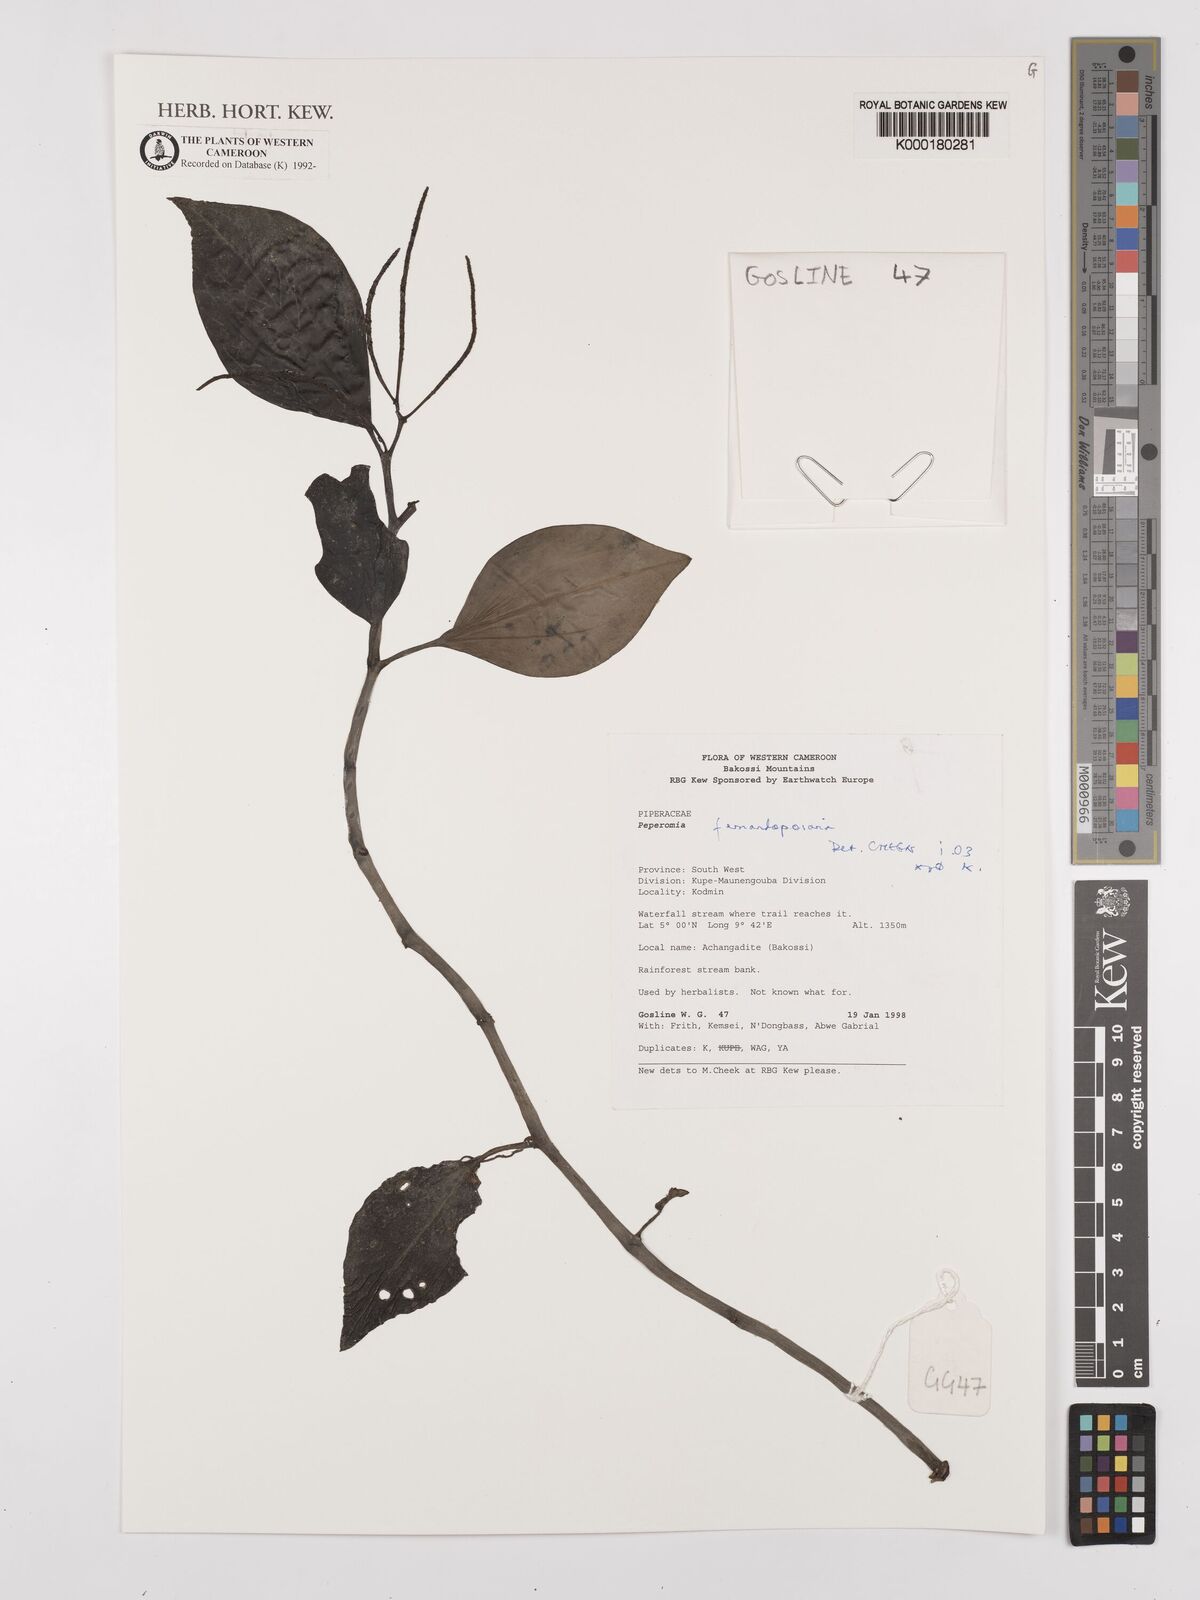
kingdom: Plantae
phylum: Tracheophyta
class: Magnoliopsida
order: Piperales
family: Piperaceae
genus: Peperomia
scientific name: Peperomia fernandopoiana
